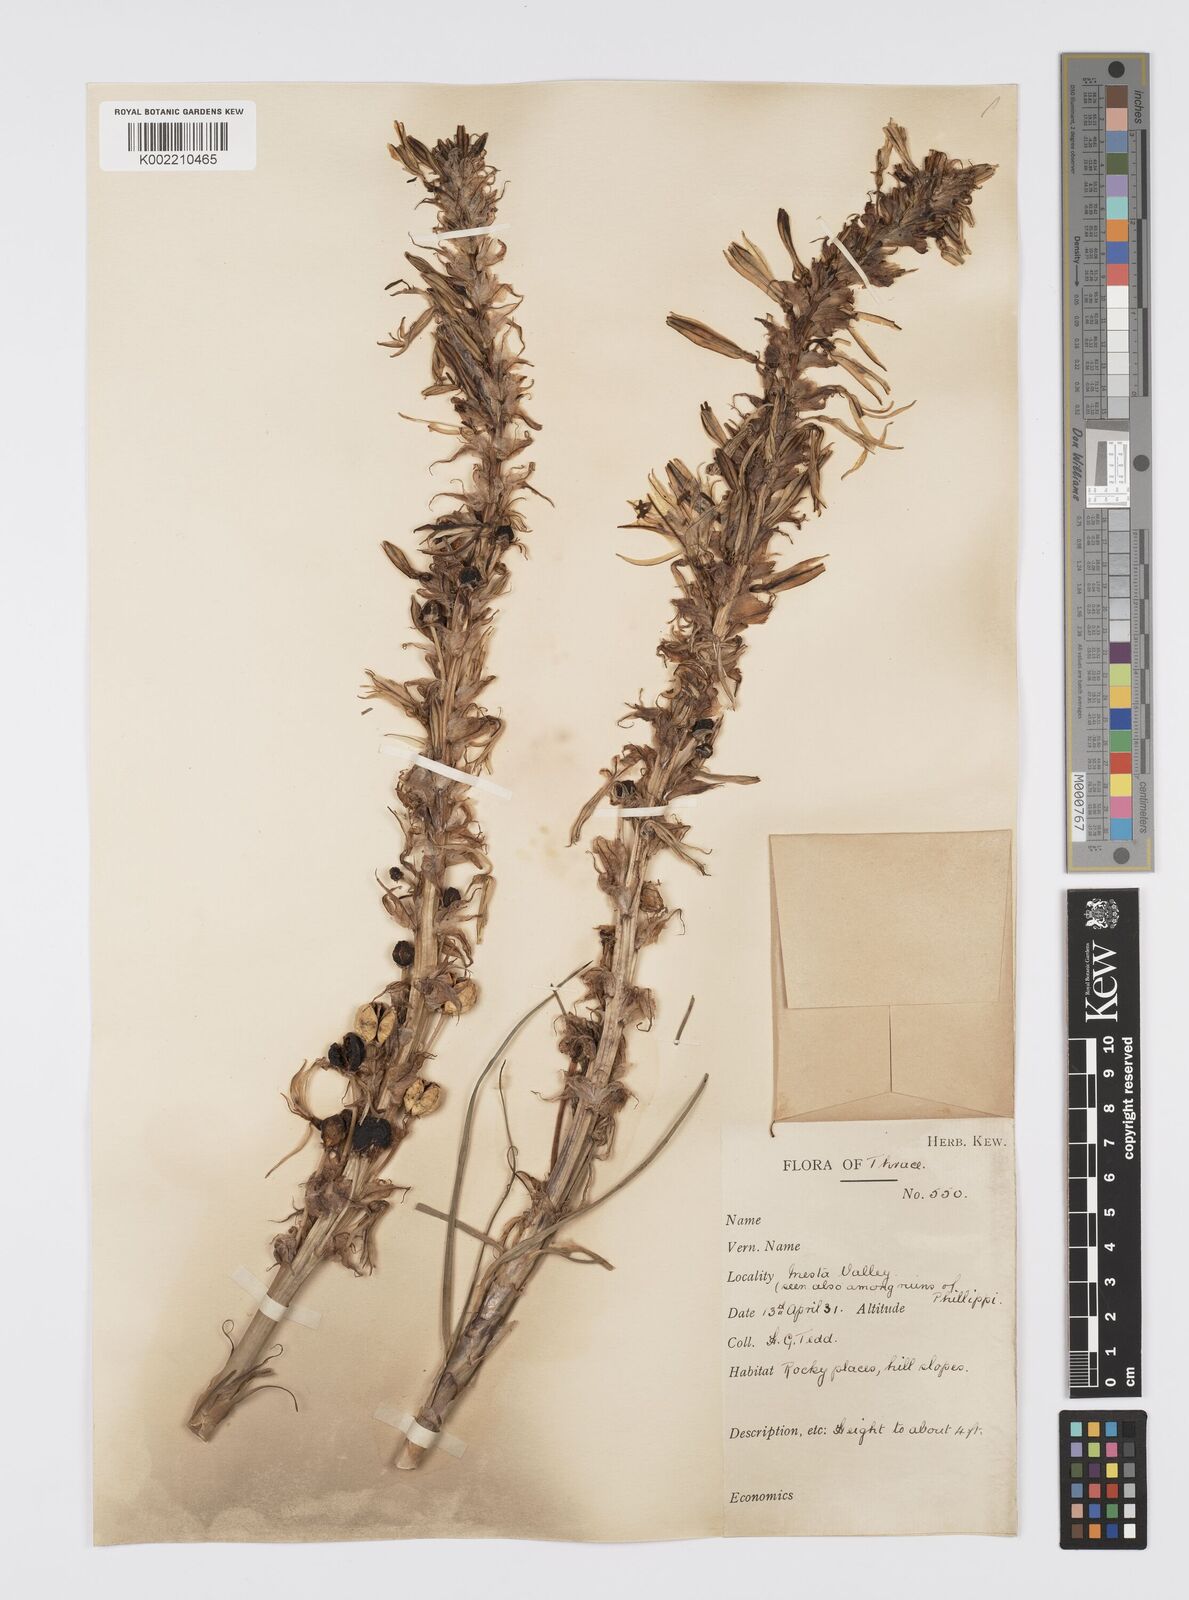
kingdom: Plantae
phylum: Tracheophyta
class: Liliopsida
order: Asparagales
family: Asphodelaceae
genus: Asphodeline
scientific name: Asphodeline lutea
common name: Yellow asphodel
